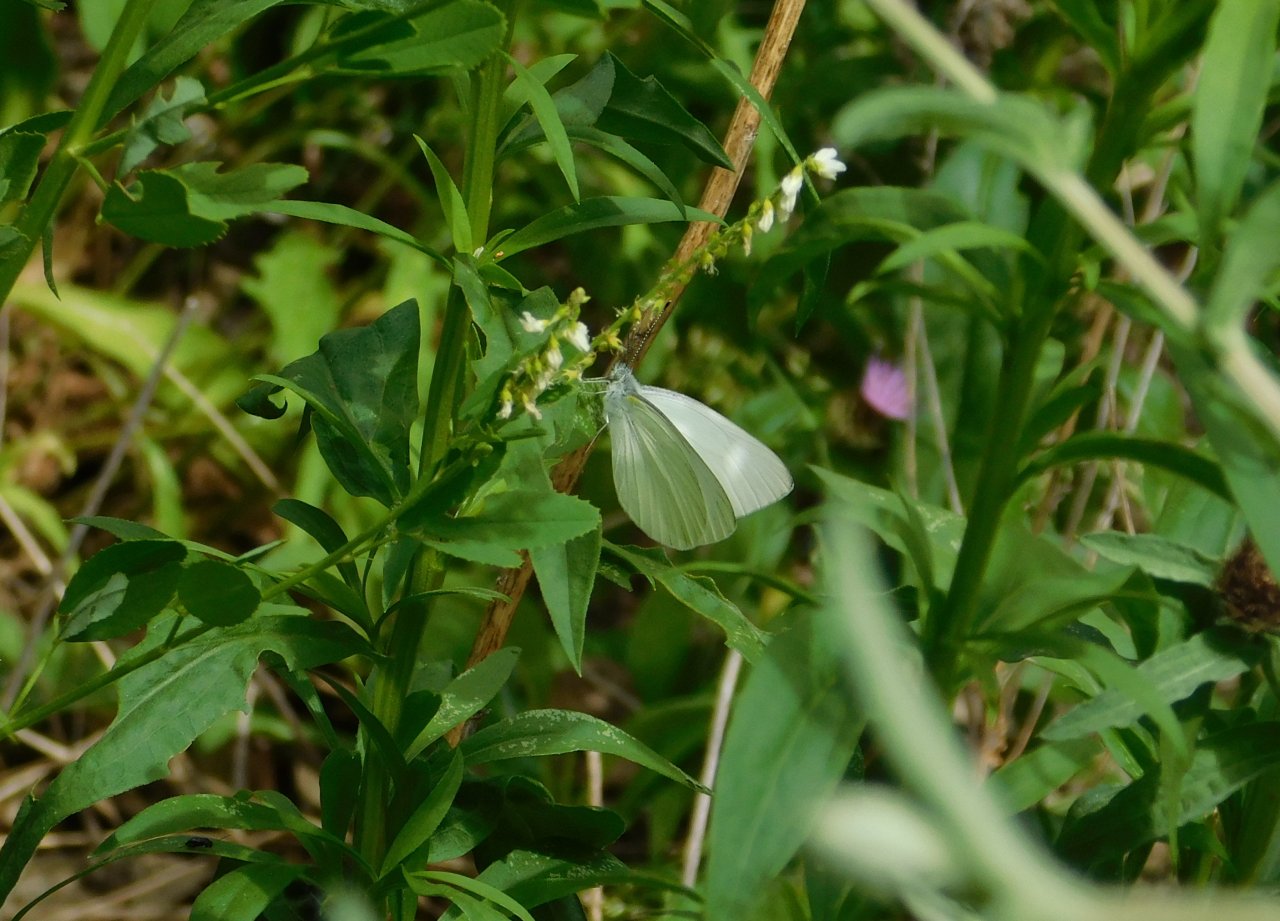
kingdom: Animalia
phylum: Arthropoda
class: Insecta
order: Lepidoptera
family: Pieridae
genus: Pieris
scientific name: Pieris oleracea
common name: Mustard White
